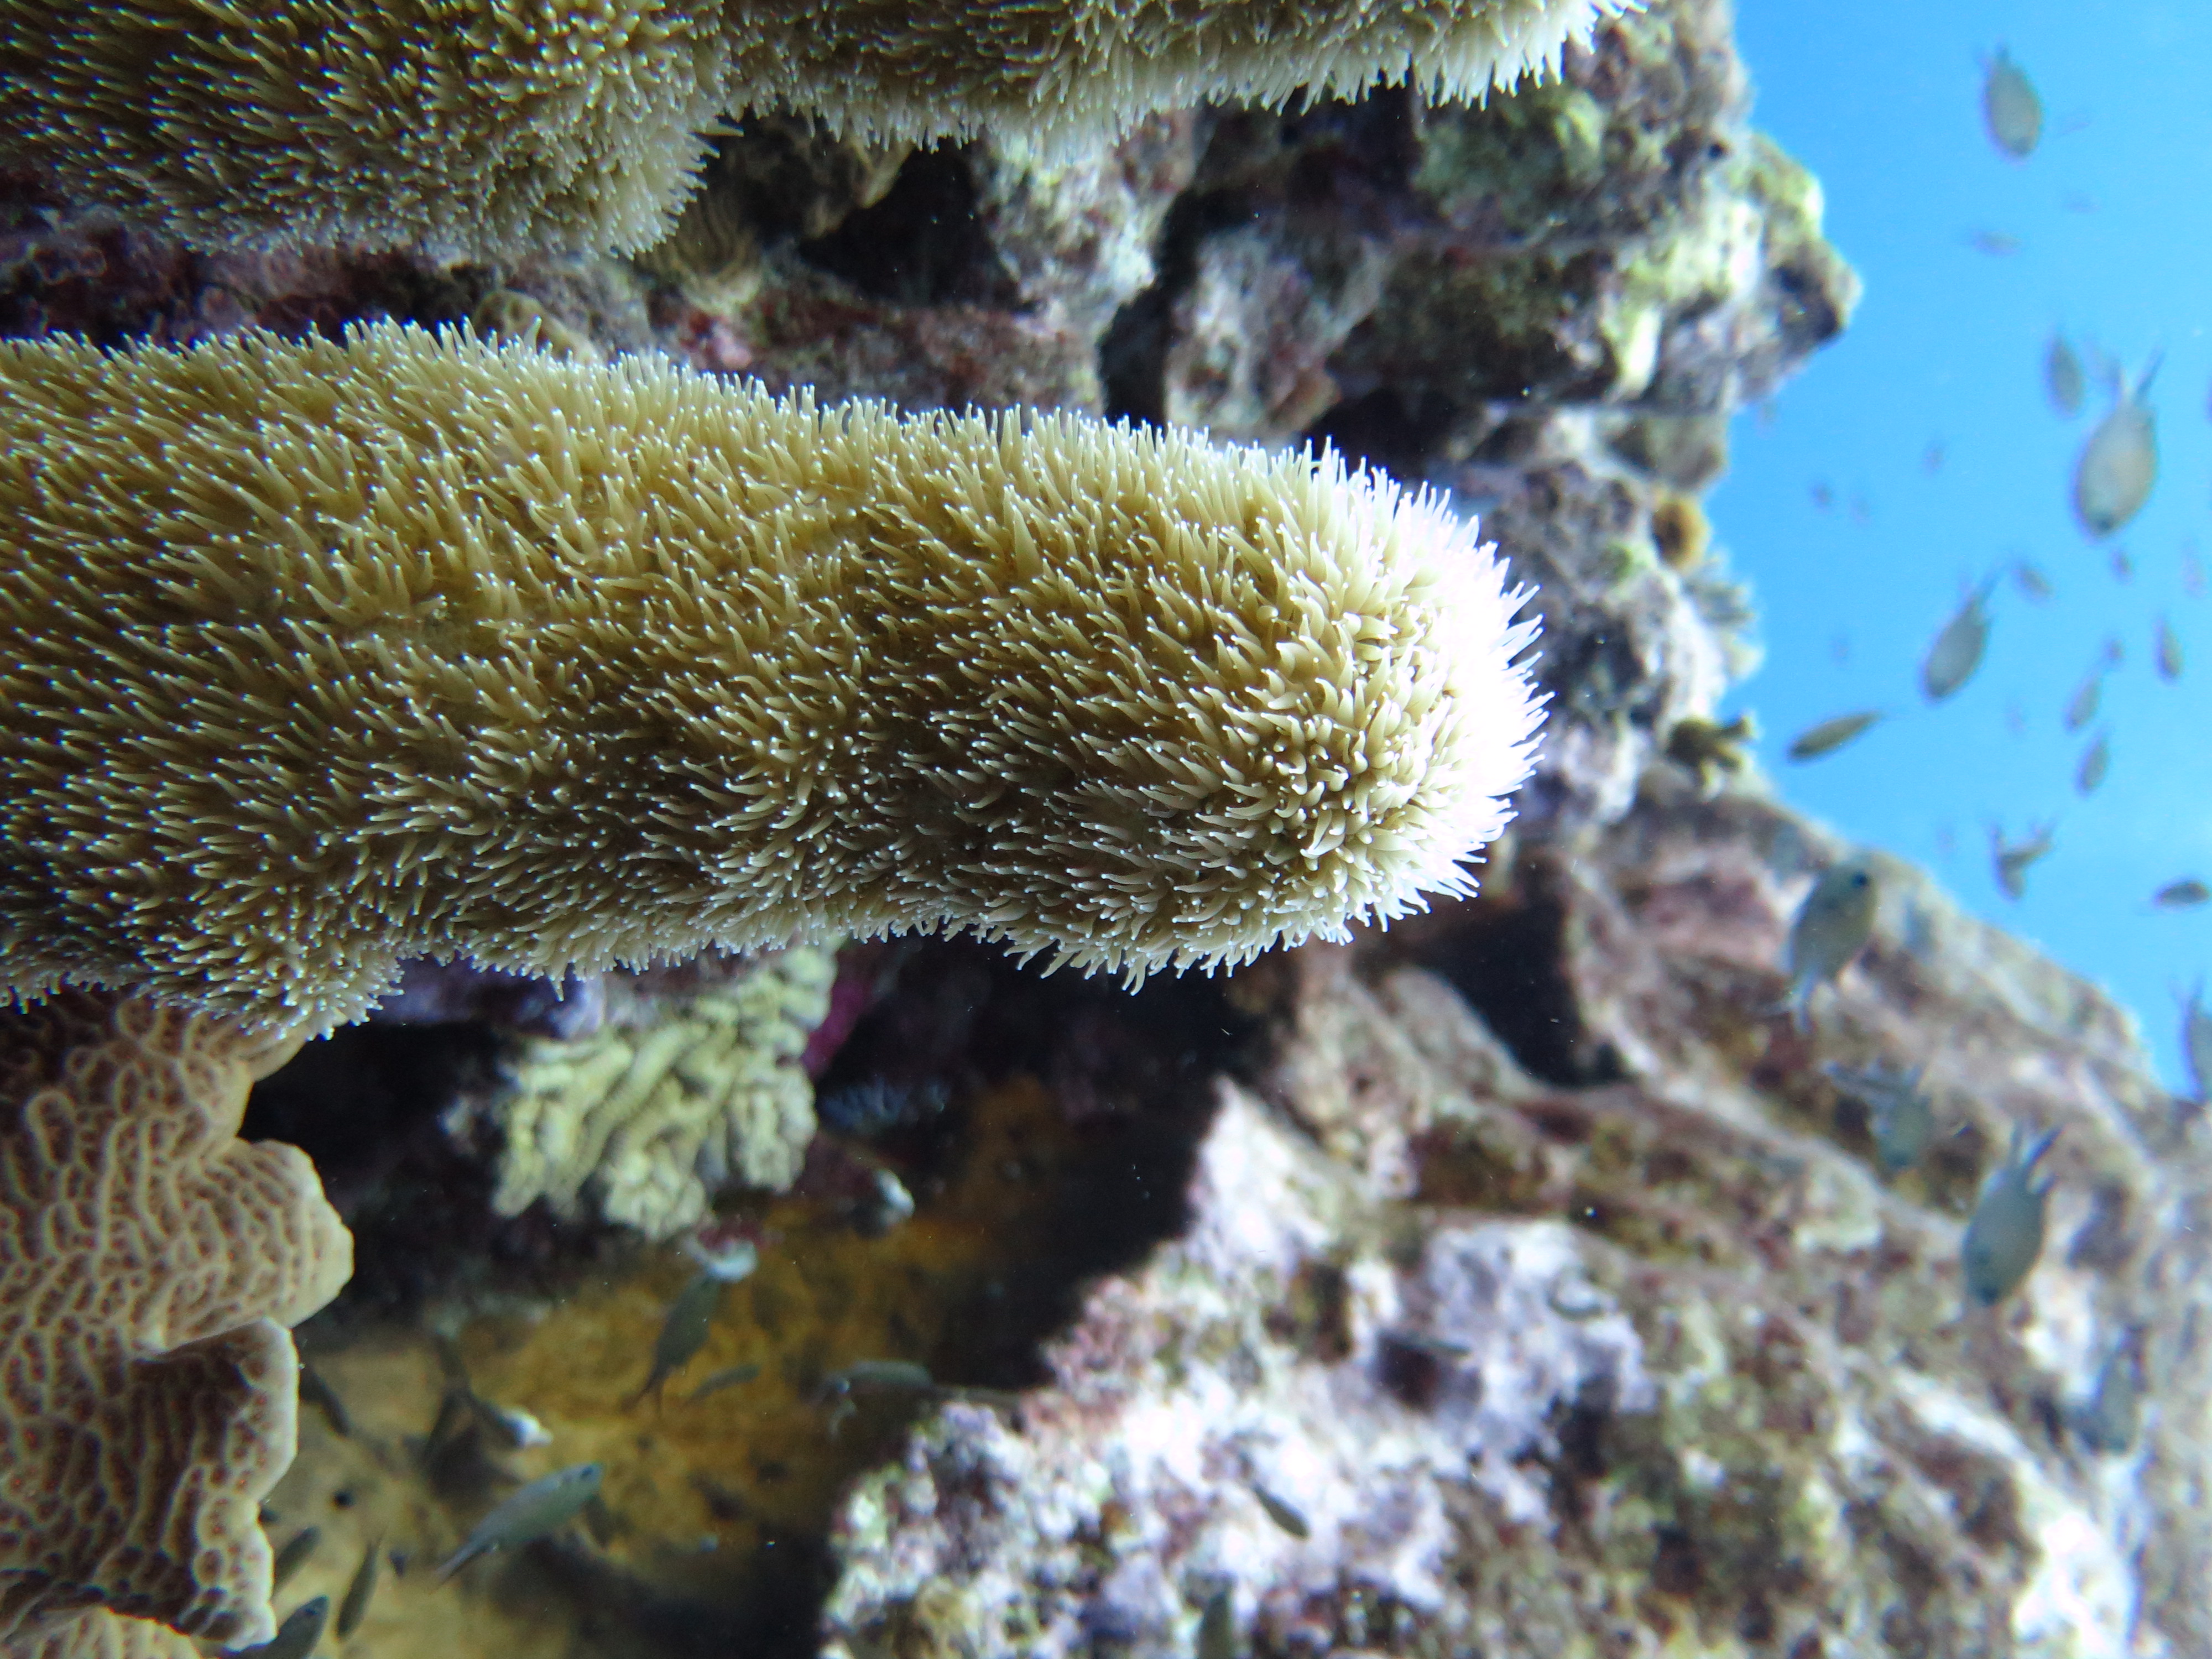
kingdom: Animalia
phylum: Cnidaria
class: Anthozoa
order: Scleractinia
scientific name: Scleractinia
